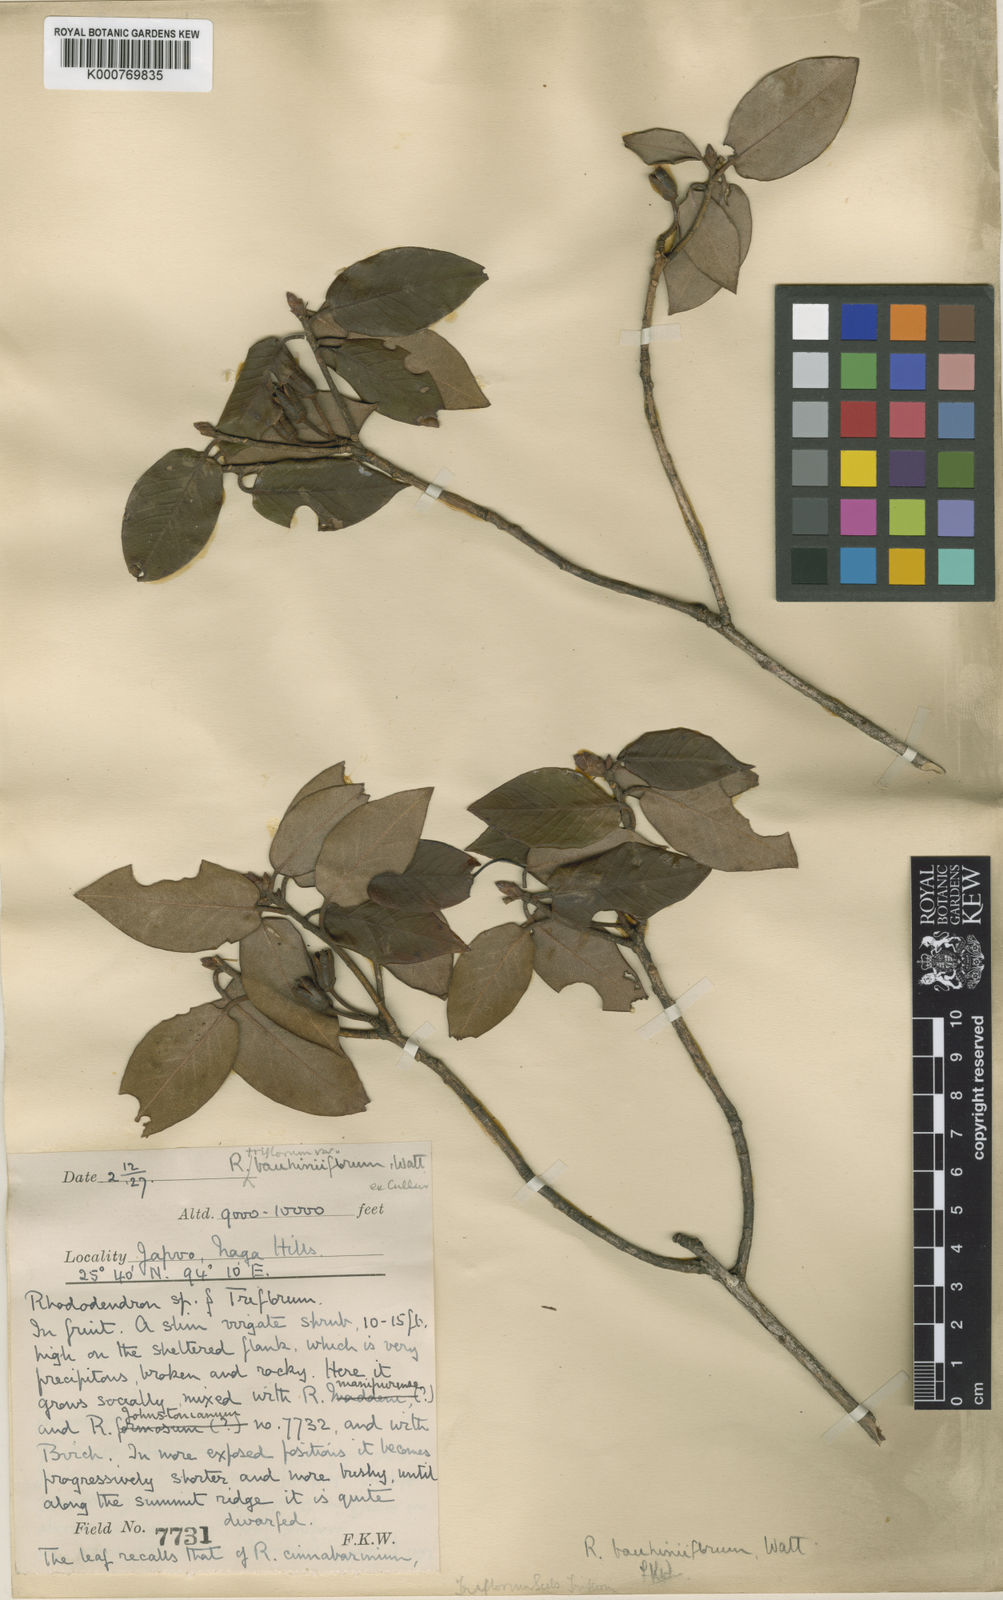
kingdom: Plantae
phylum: Tracheophyta
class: Magnoliopsida
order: Ericales
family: Ericaceae
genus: Rhododendron
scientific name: Rhododendron triflorum
